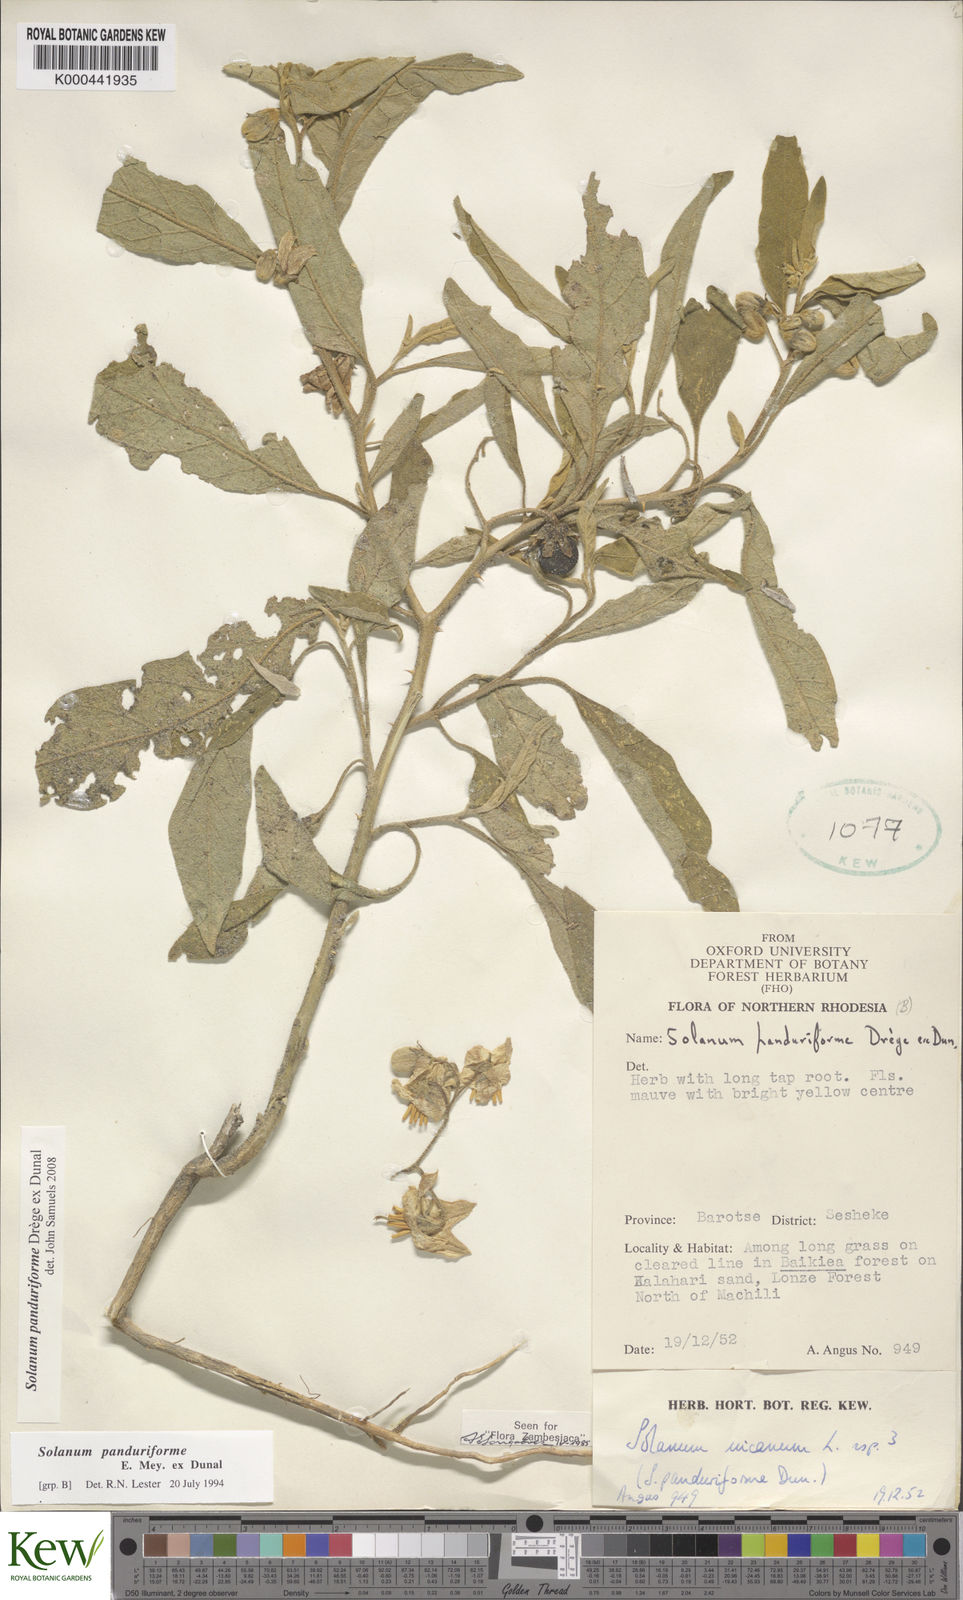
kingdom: Plantae
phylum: Tracheophyta
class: Magnoliopsida
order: Solanales
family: Solanaceae
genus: Solanum
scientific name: Solanum campylacanthum
